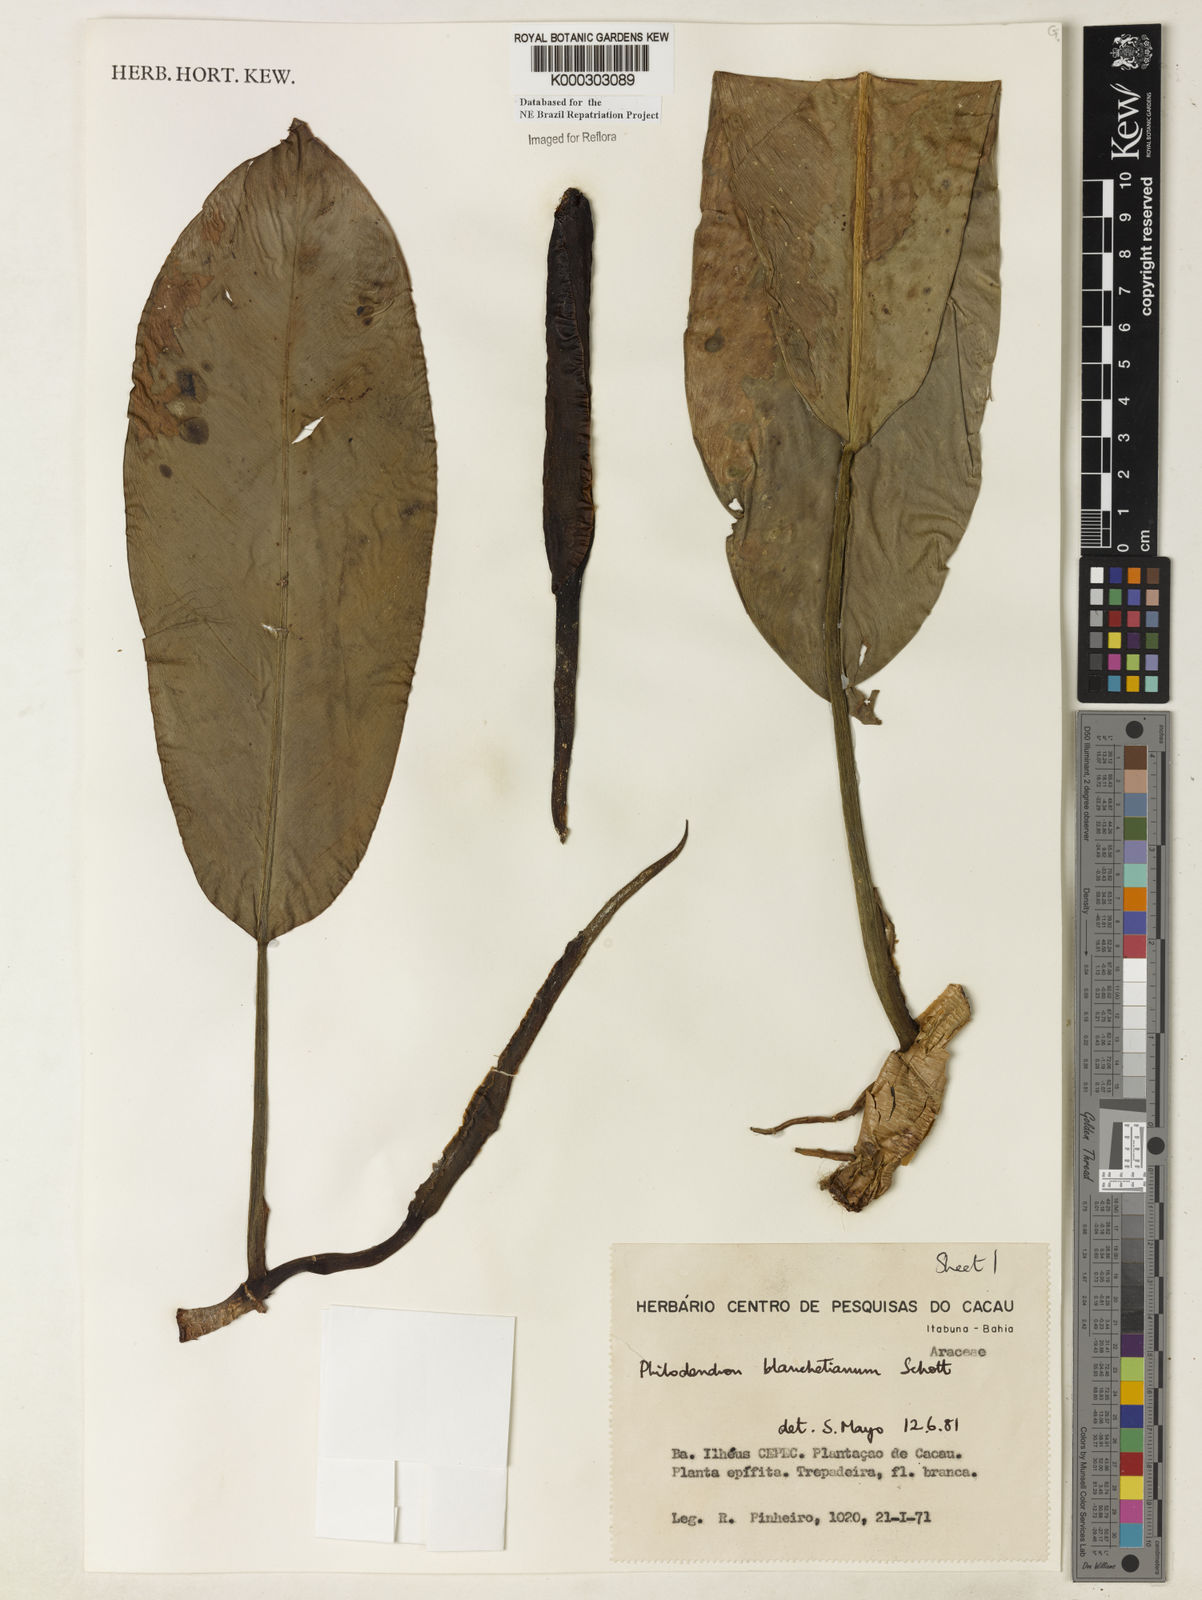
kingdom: Plantae
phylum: Tracheophyta
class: Liliopsida
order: Alismatales
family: Araceae
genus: Philodendron
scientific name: Philodendron blanchetianum
